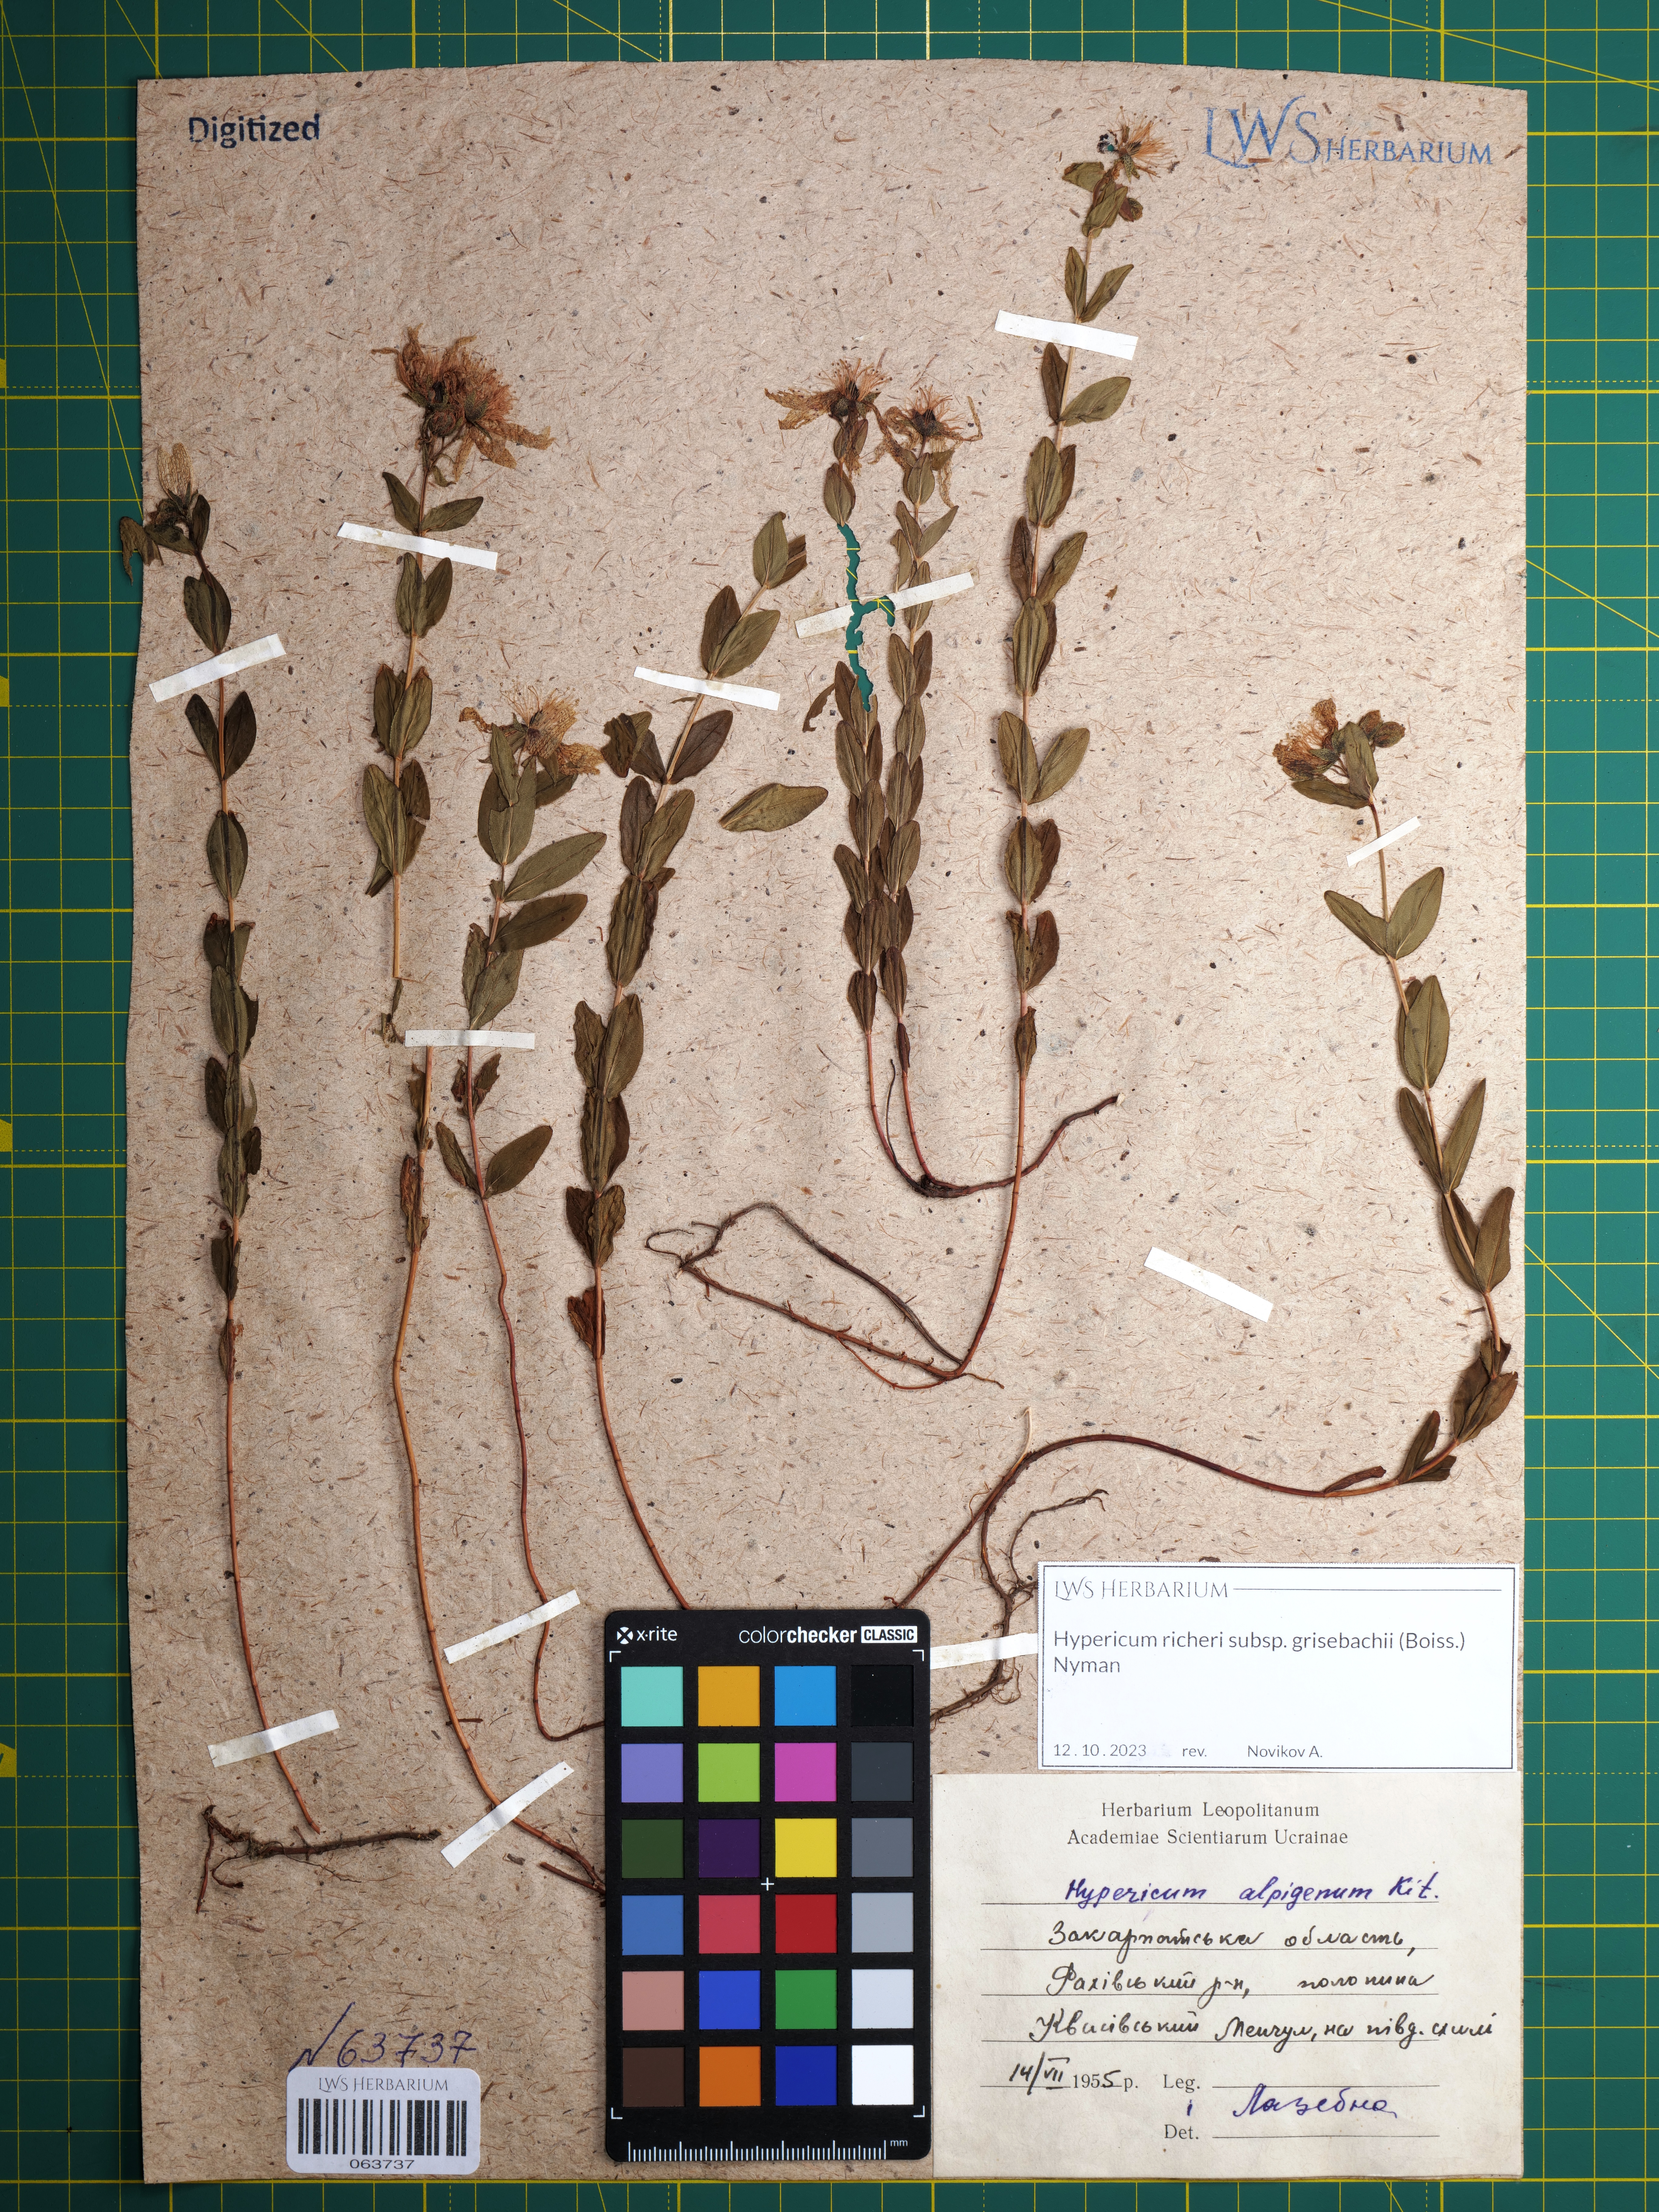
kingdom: Plantae
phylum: Tracheophyta
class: Magnoliopsida
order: Malpighiales
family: Hypericaceae
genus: Hypericum
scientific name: Hypericum richeri
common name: Alpine st john's-wort
